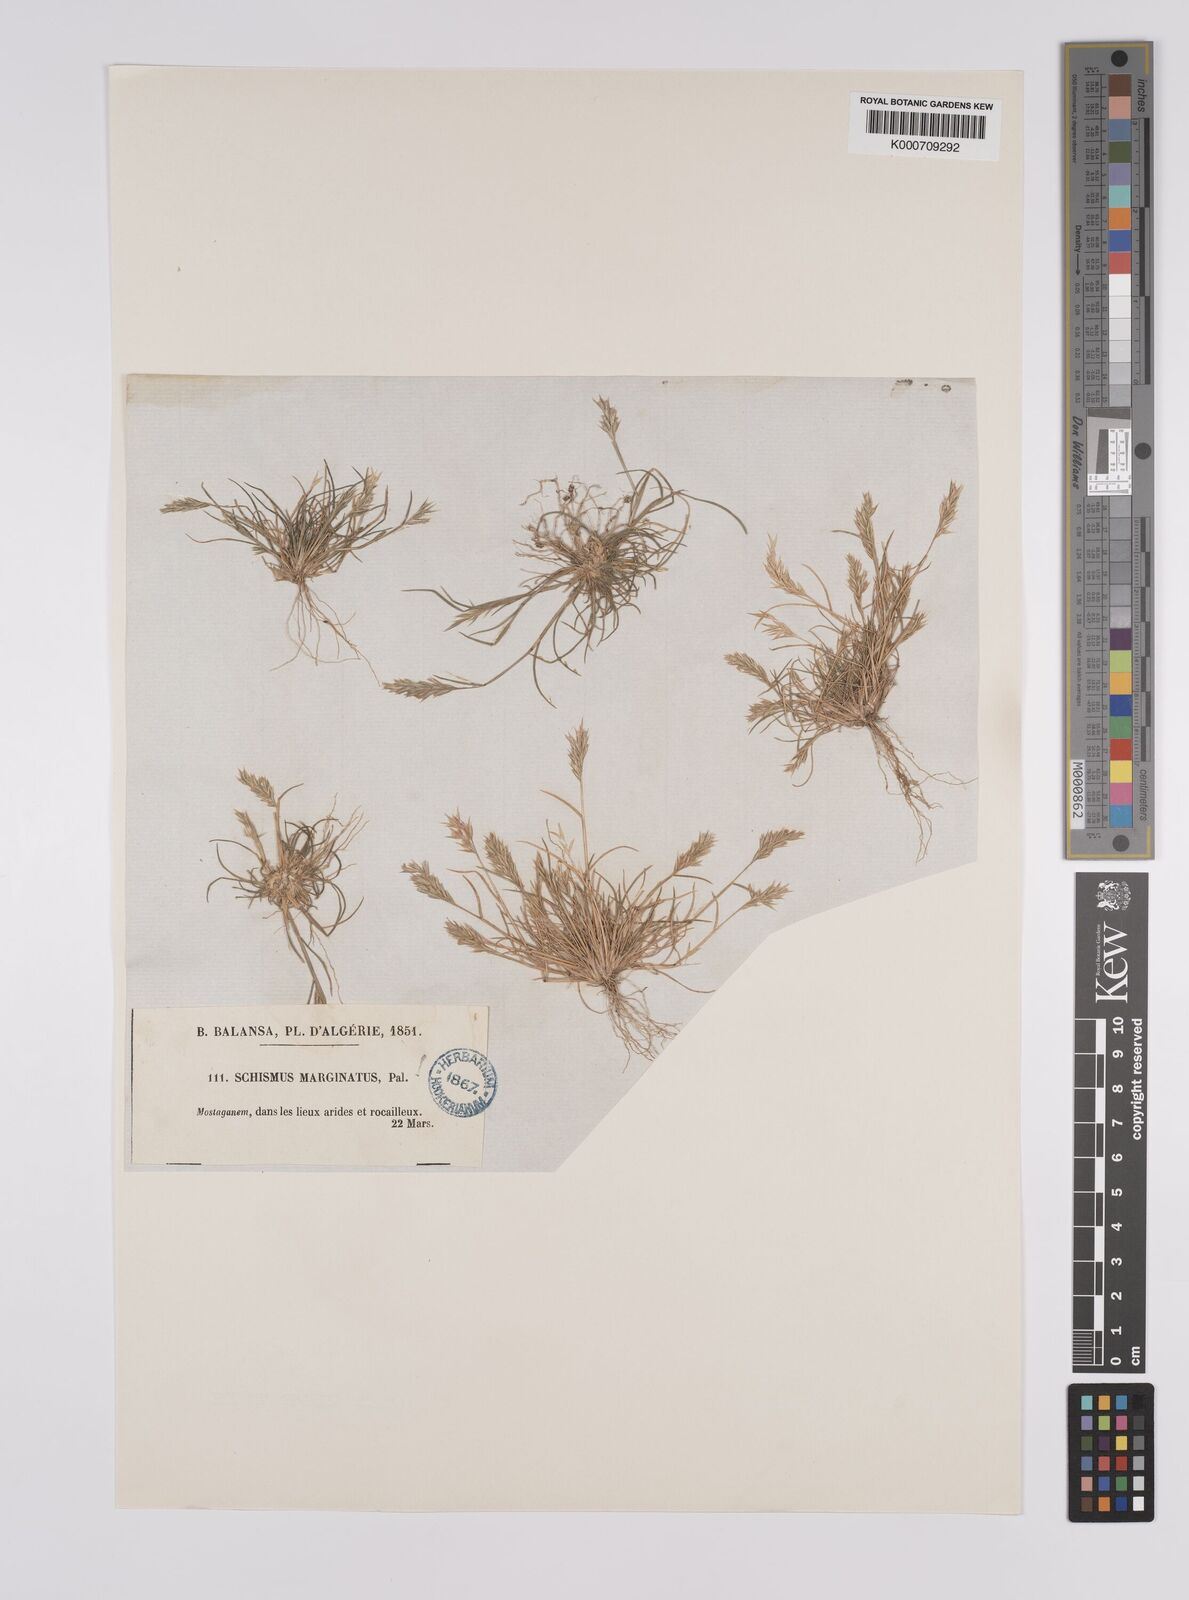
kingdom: Plantae
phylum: Tracheophyta
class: Liliopsida
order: Poales
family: Poaceae
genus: Schismus
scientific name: Schismus barbatus
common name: Kelch-grass
